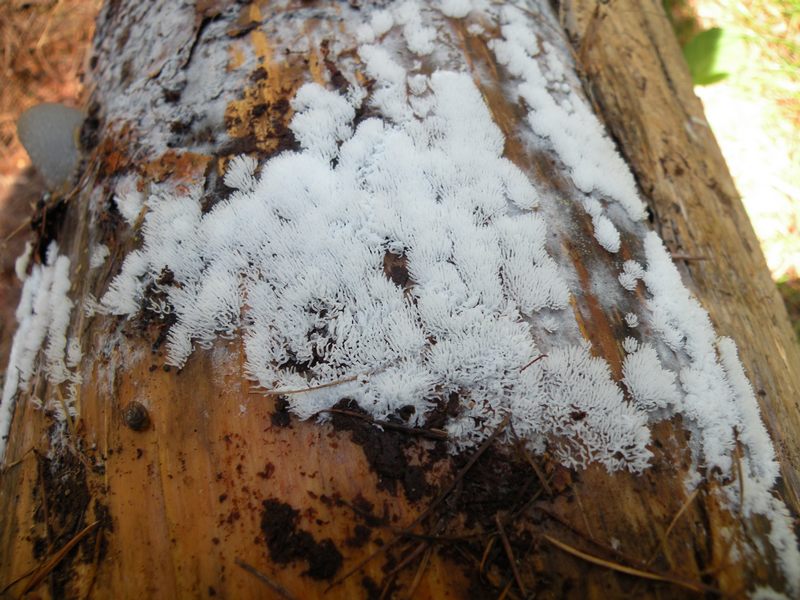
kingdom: Protozoa
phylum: Mycetozoa
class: Protosteliomycetes
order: Ceratiomyxales
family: Ceratiomyxaceae
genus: Ceratiomyxa
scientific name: Ceratiomyxa fruticulosa
